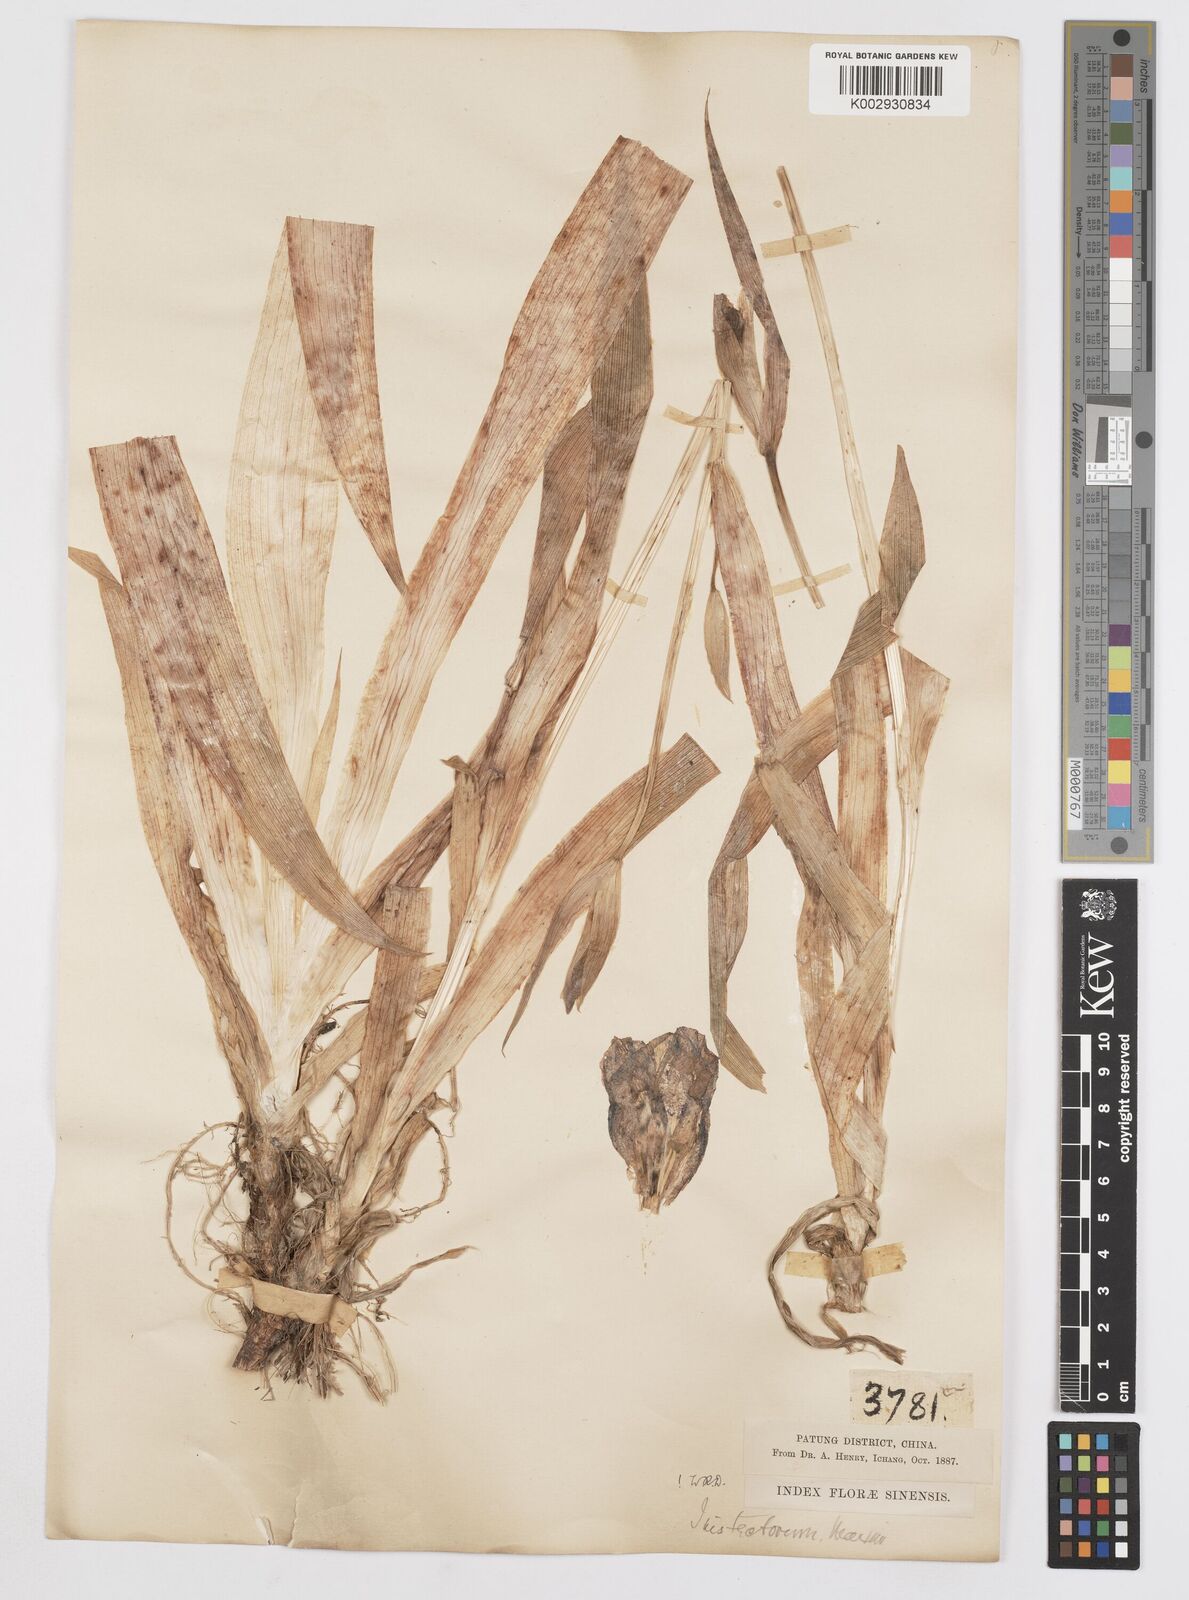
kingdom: Plantae
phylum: Tracheophyta
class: Liliopsida
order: Asparagales
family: Iridaceae
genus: Iris
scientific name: Iris tectorum
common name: Wall iris
